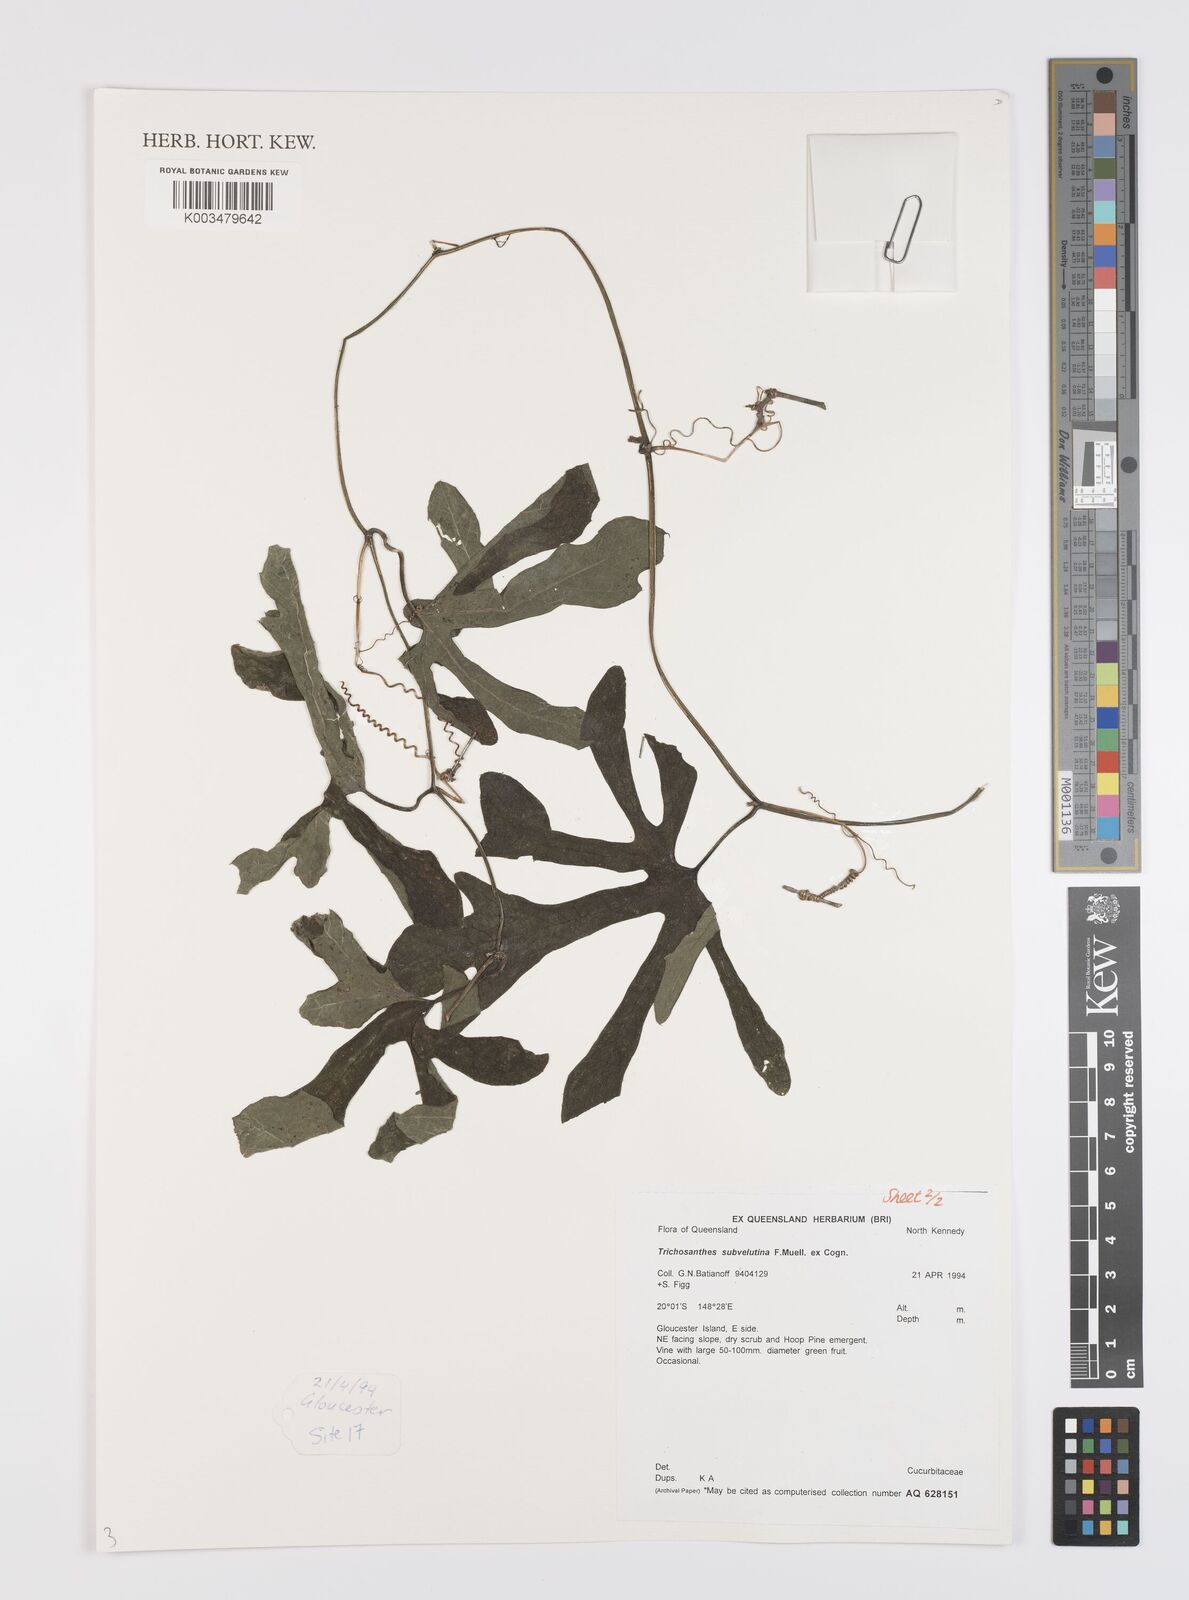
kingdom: Plantae
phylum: Tracheophyta
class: Magnoliopsida
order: Cucurbitales
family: Cucurbitaceae
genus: Trichosanthes
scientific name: Trichosanthes subvelutina
